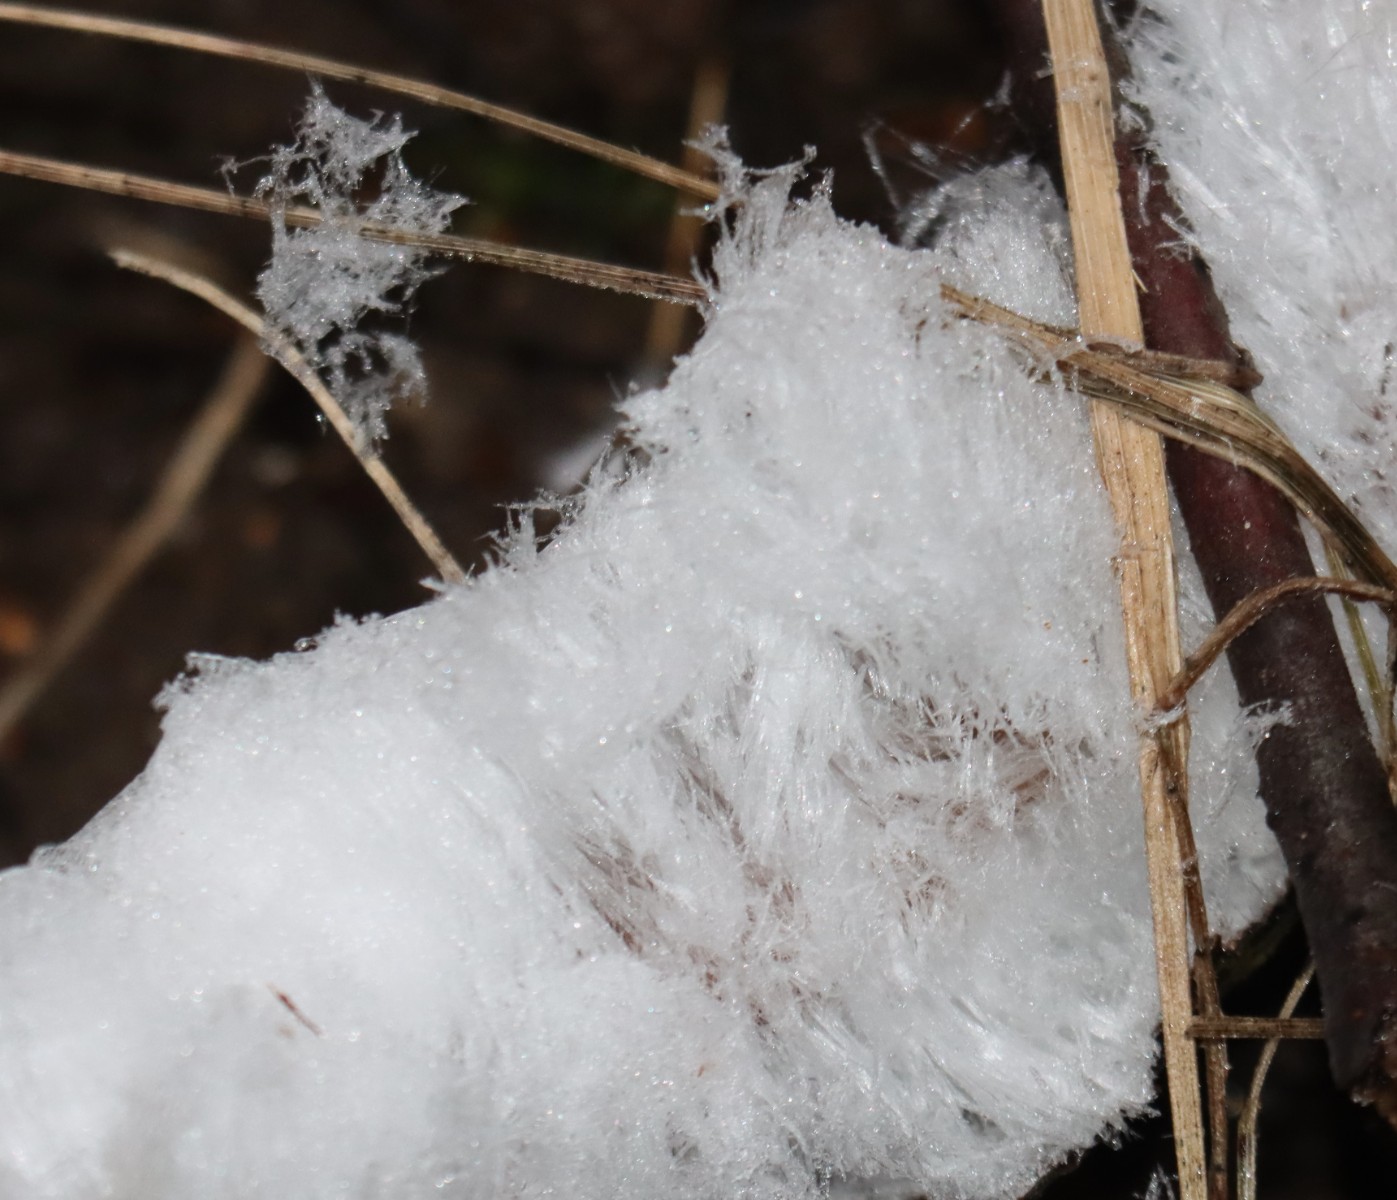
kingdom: Fungi
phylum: Basidiomycota
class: Tremellomycetes
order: Tremellales
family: Exidiaceae
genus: Exidiopsis
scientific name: Exidiopsis effusa
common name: smuk bævrehinde
